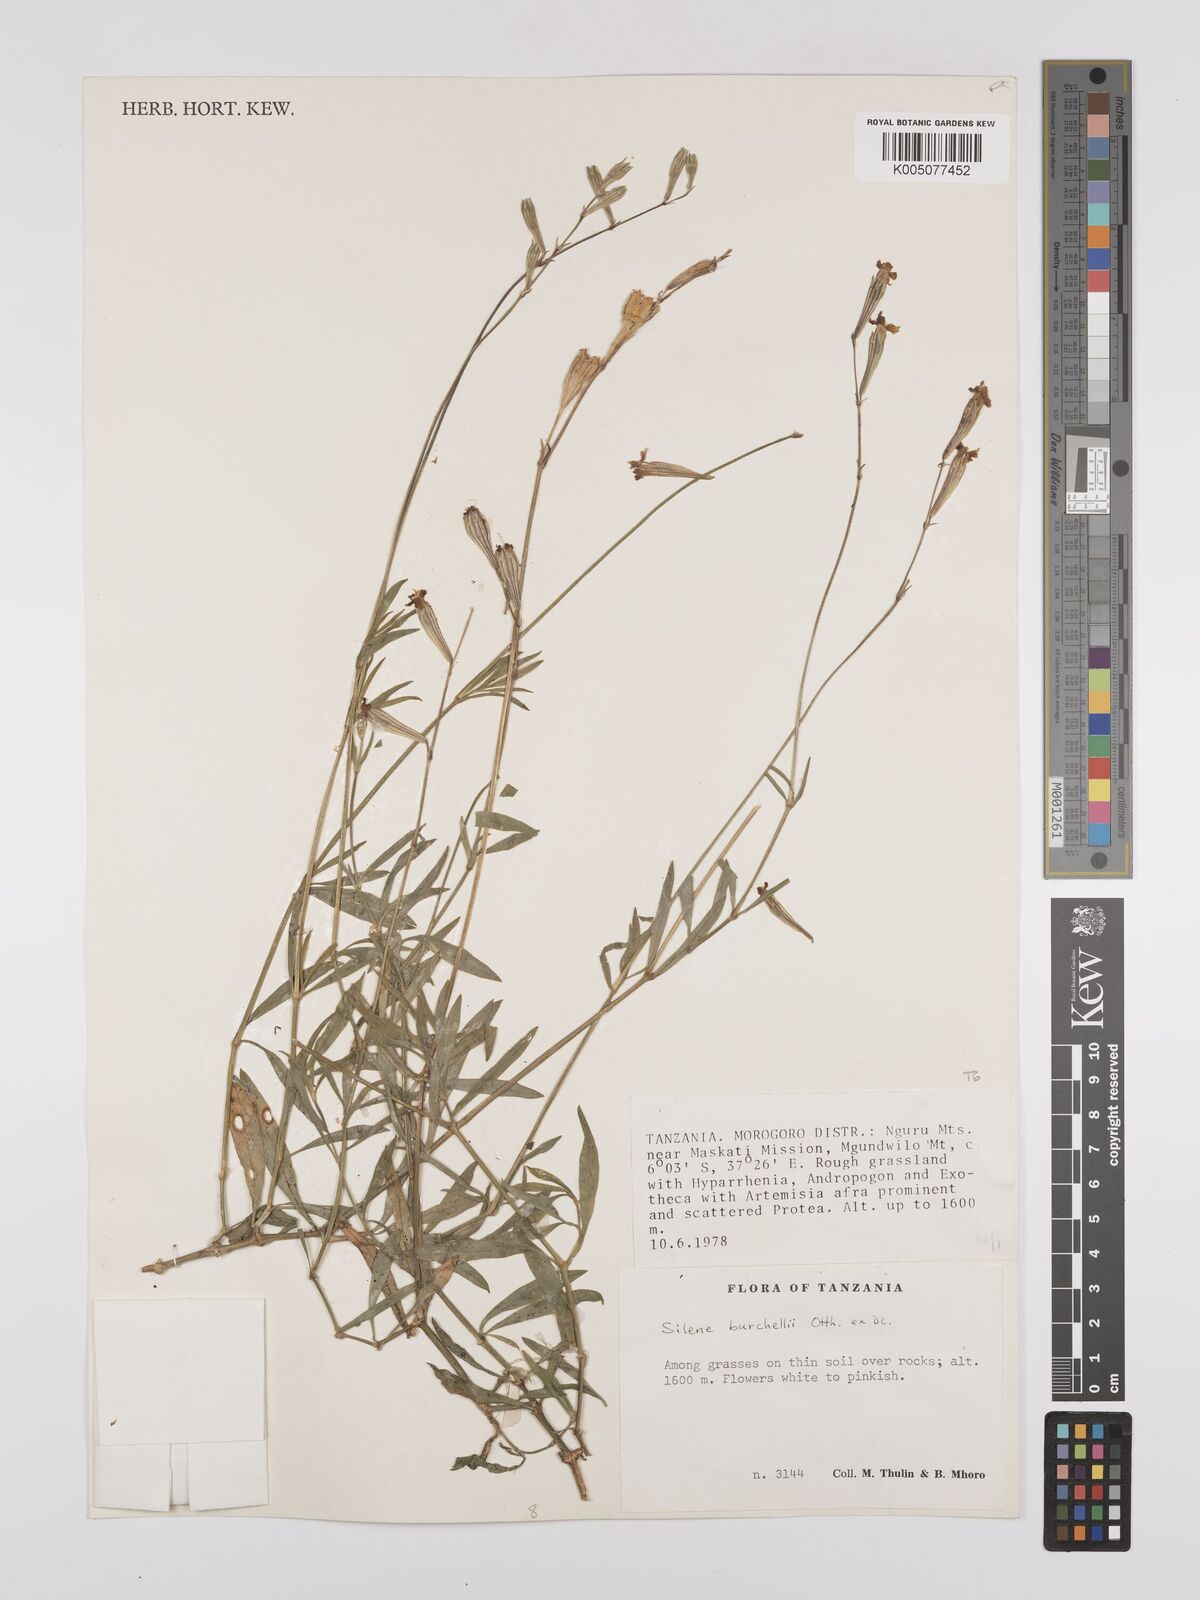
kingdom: Plantae
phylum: Tracheophyta
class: Magnoliopsida
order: Caryophyllales
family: Caryophyllaceae
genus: Silene
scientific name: Silene burchellii
